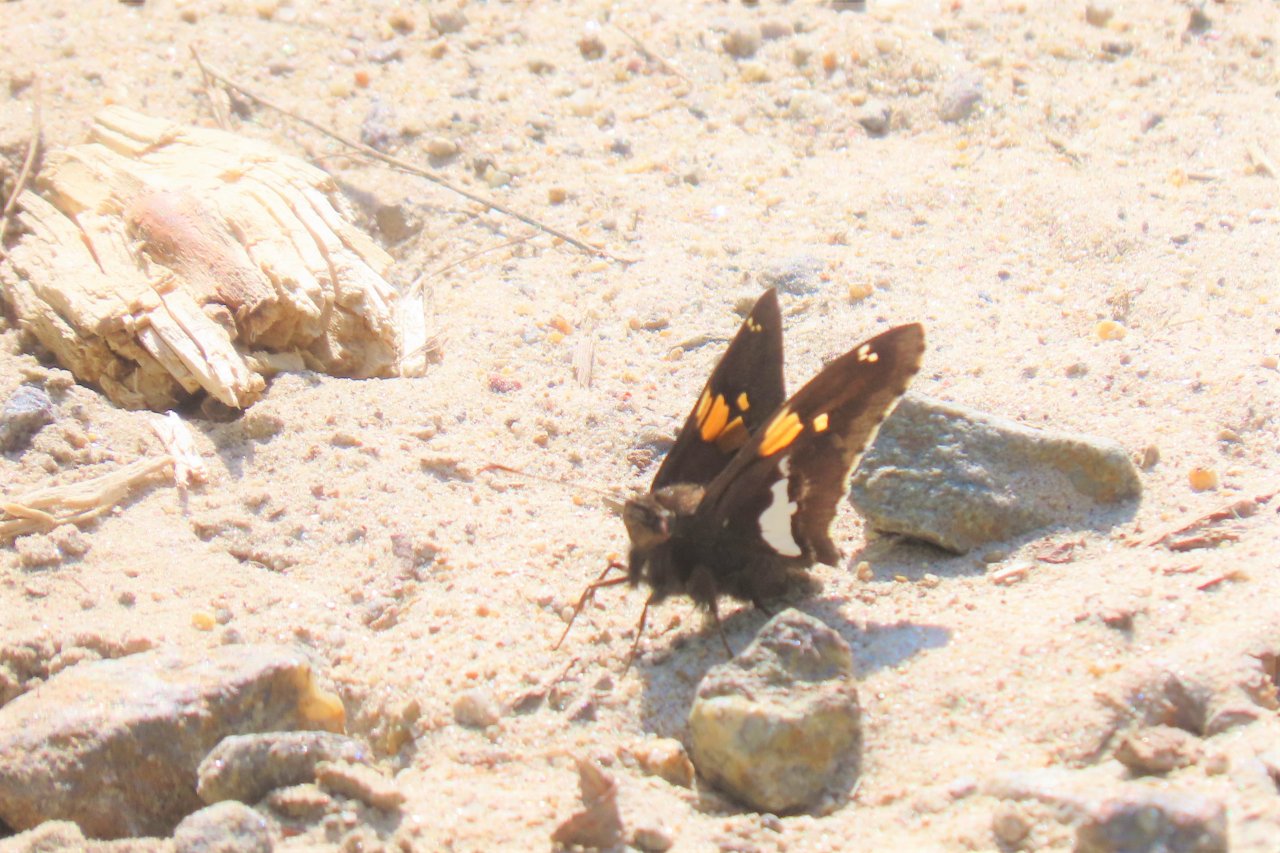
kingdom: Animalia
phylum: Arthropoda
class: Insecta
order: Lepidoptera
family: Hesperiidae
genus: Epargyreus
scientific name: Epargyreus clarus
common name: Silver-spotted Skipper
